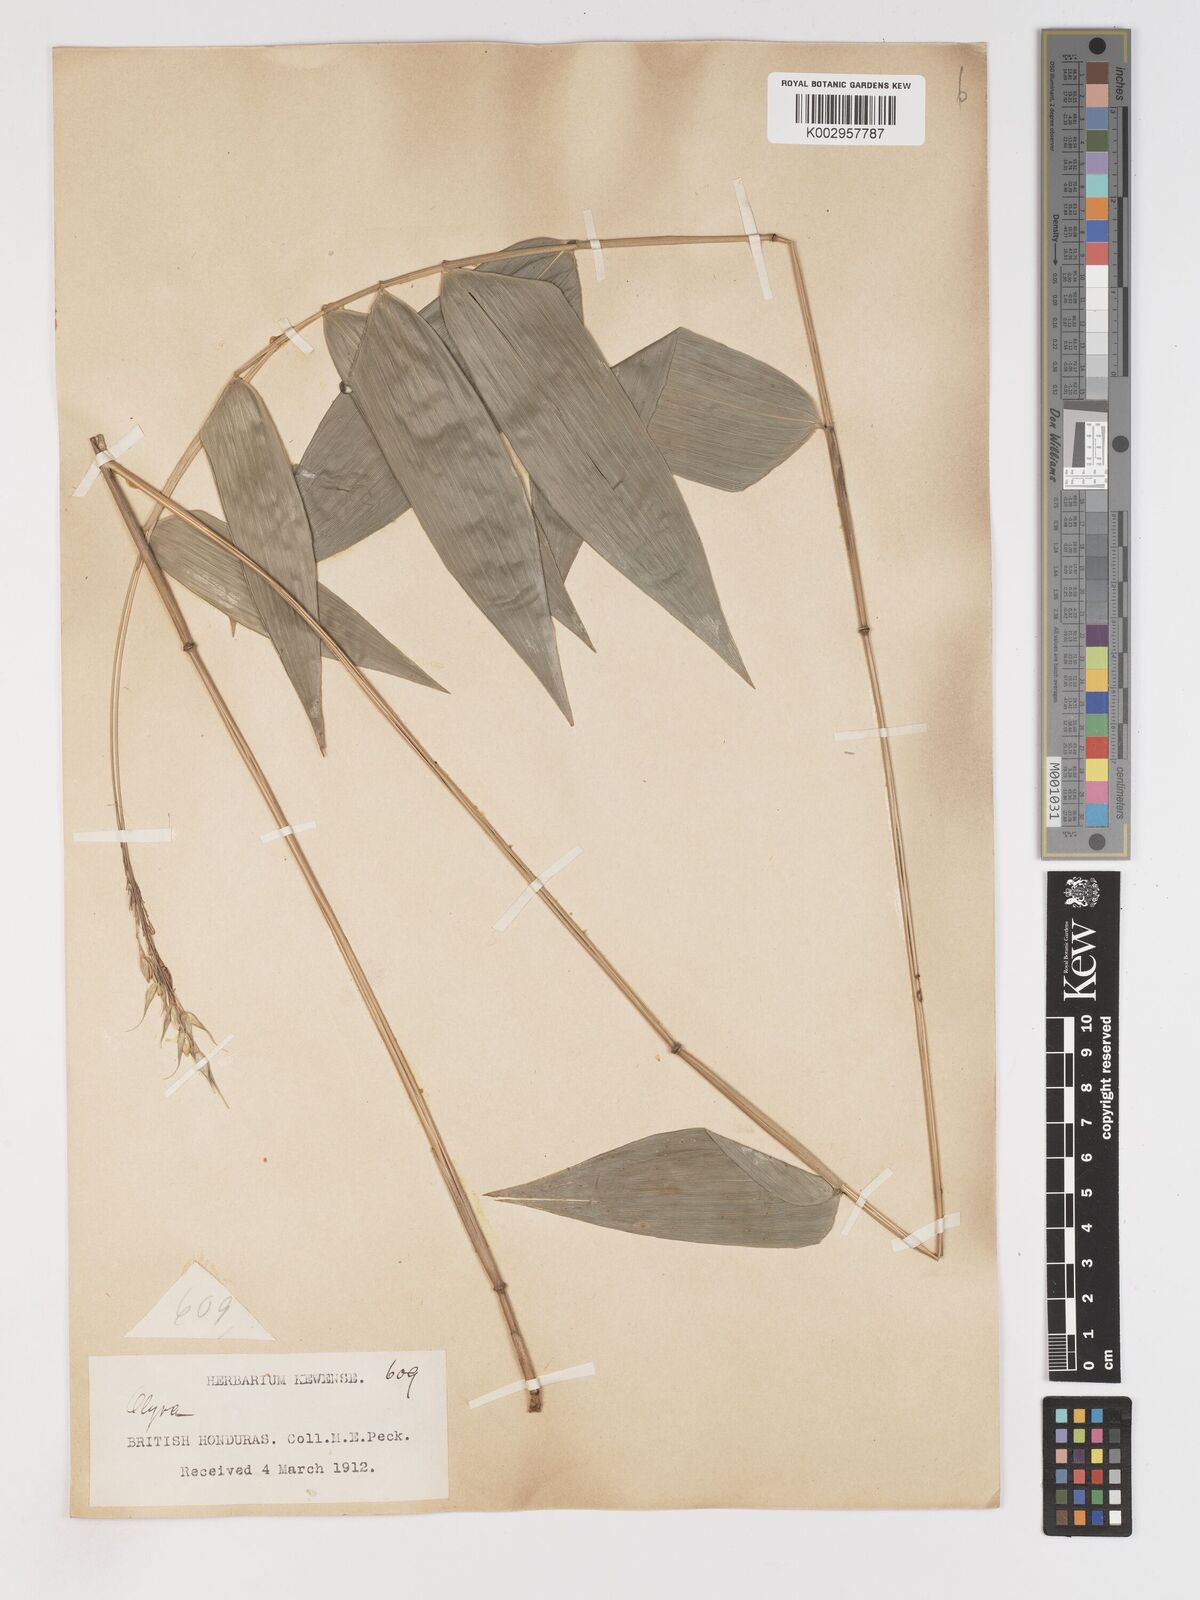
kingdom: Plantae
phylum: Tracheophyta
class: Liliopsida
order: Poales
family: Poaceae
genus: Olyra
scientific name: Olyra latifolia
